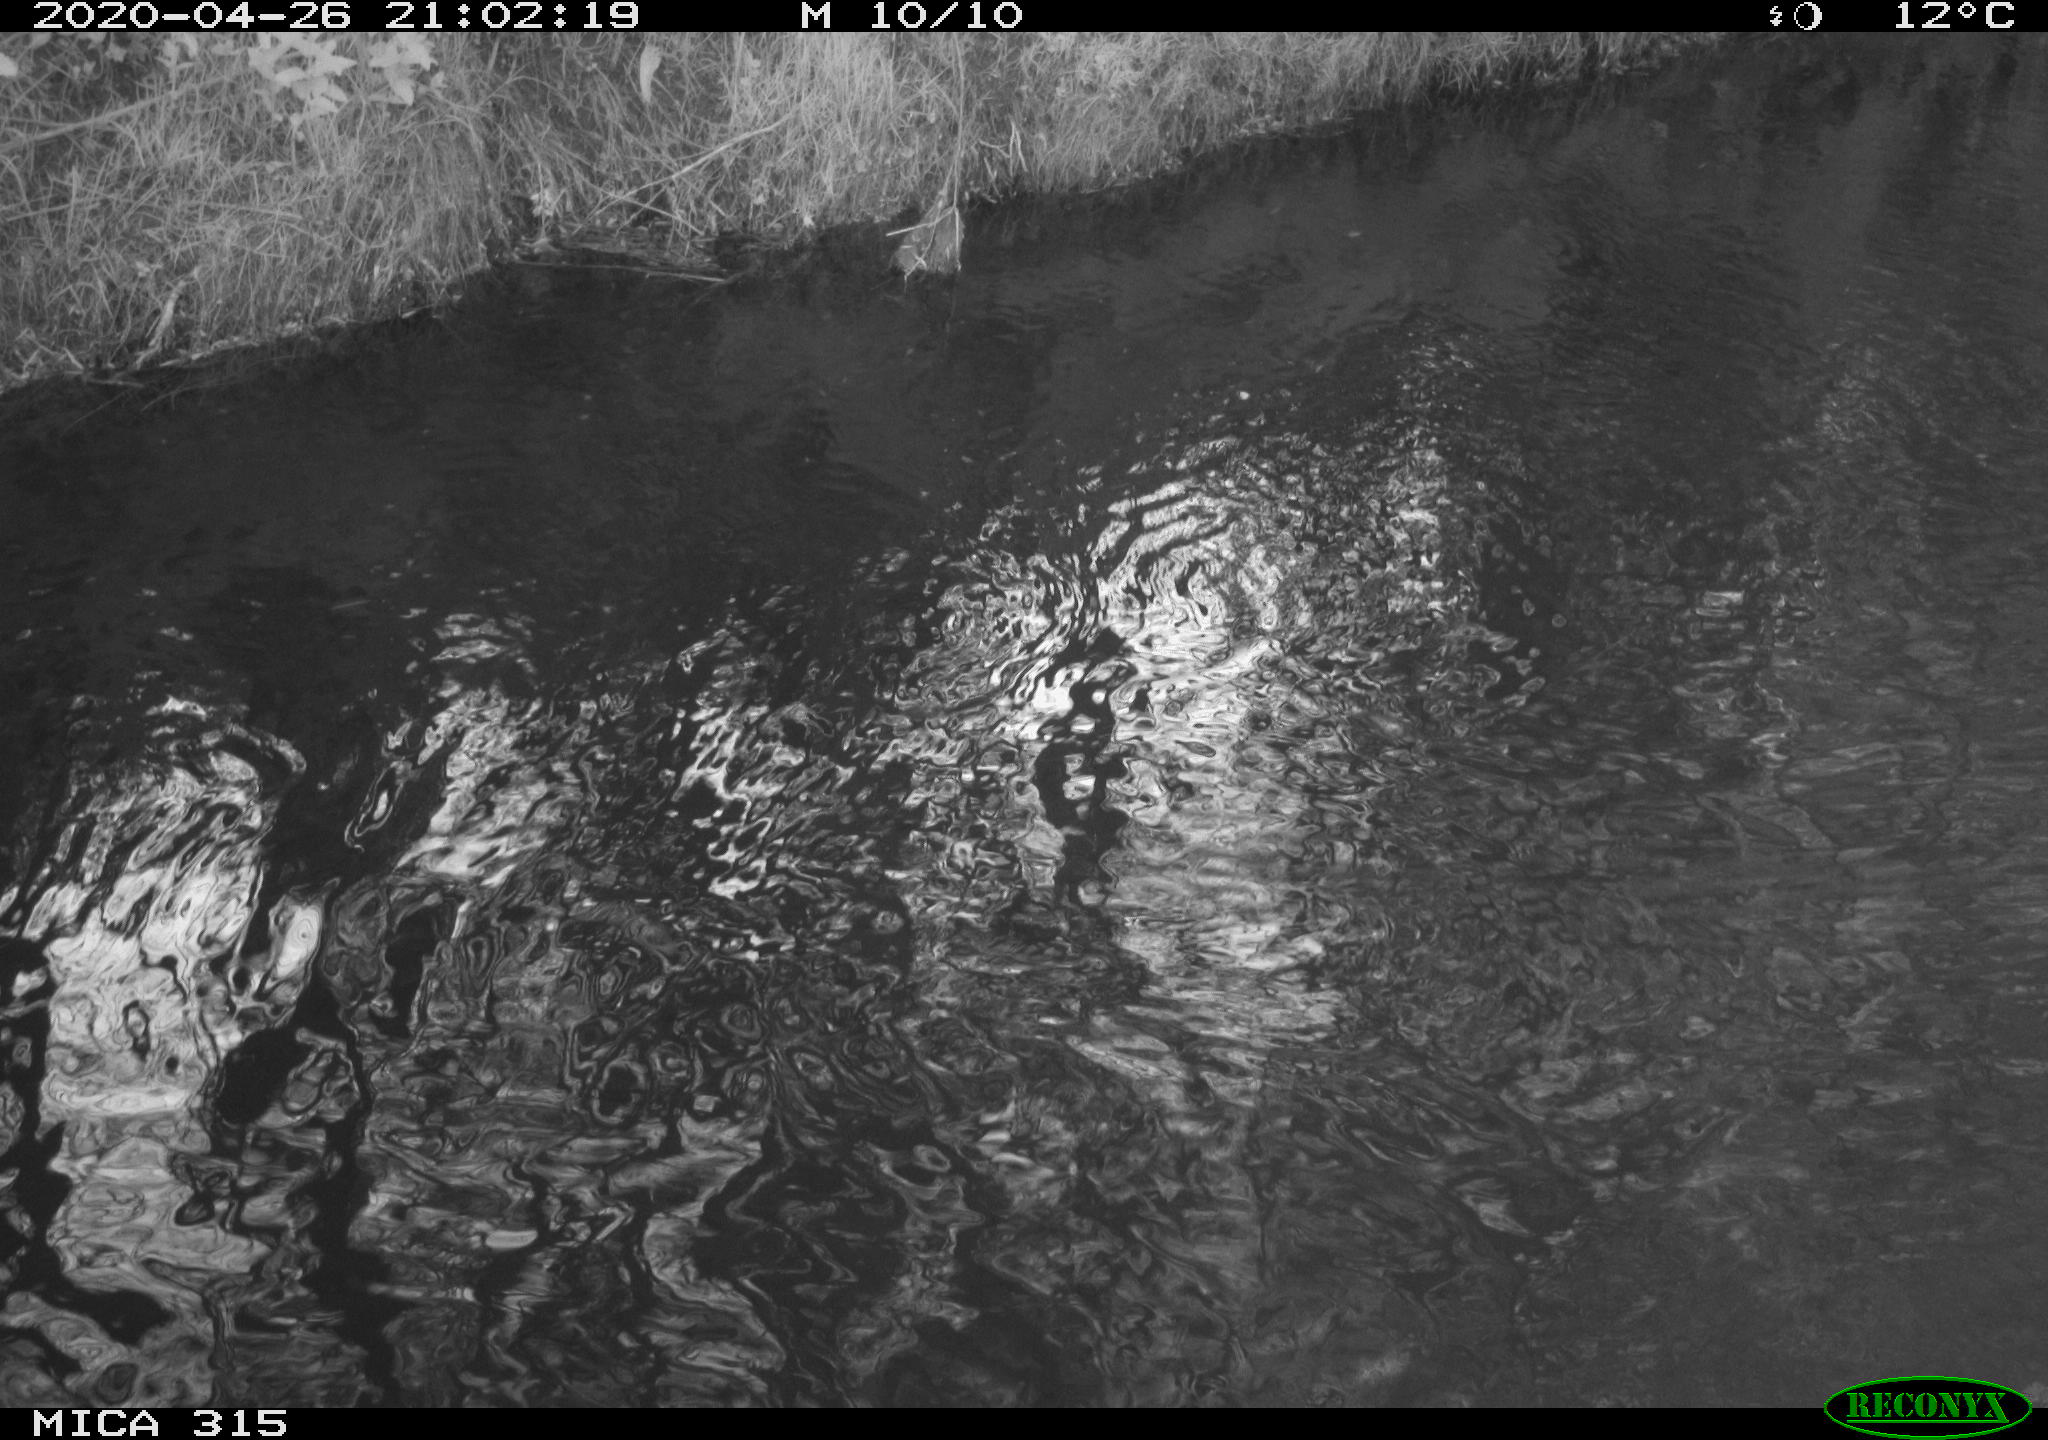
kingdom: Animalia
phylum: Chordata
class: Aves
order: Anseriformes
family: Anatidae
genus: Anas
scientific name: Anas platyrhynchos
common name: Mallard
